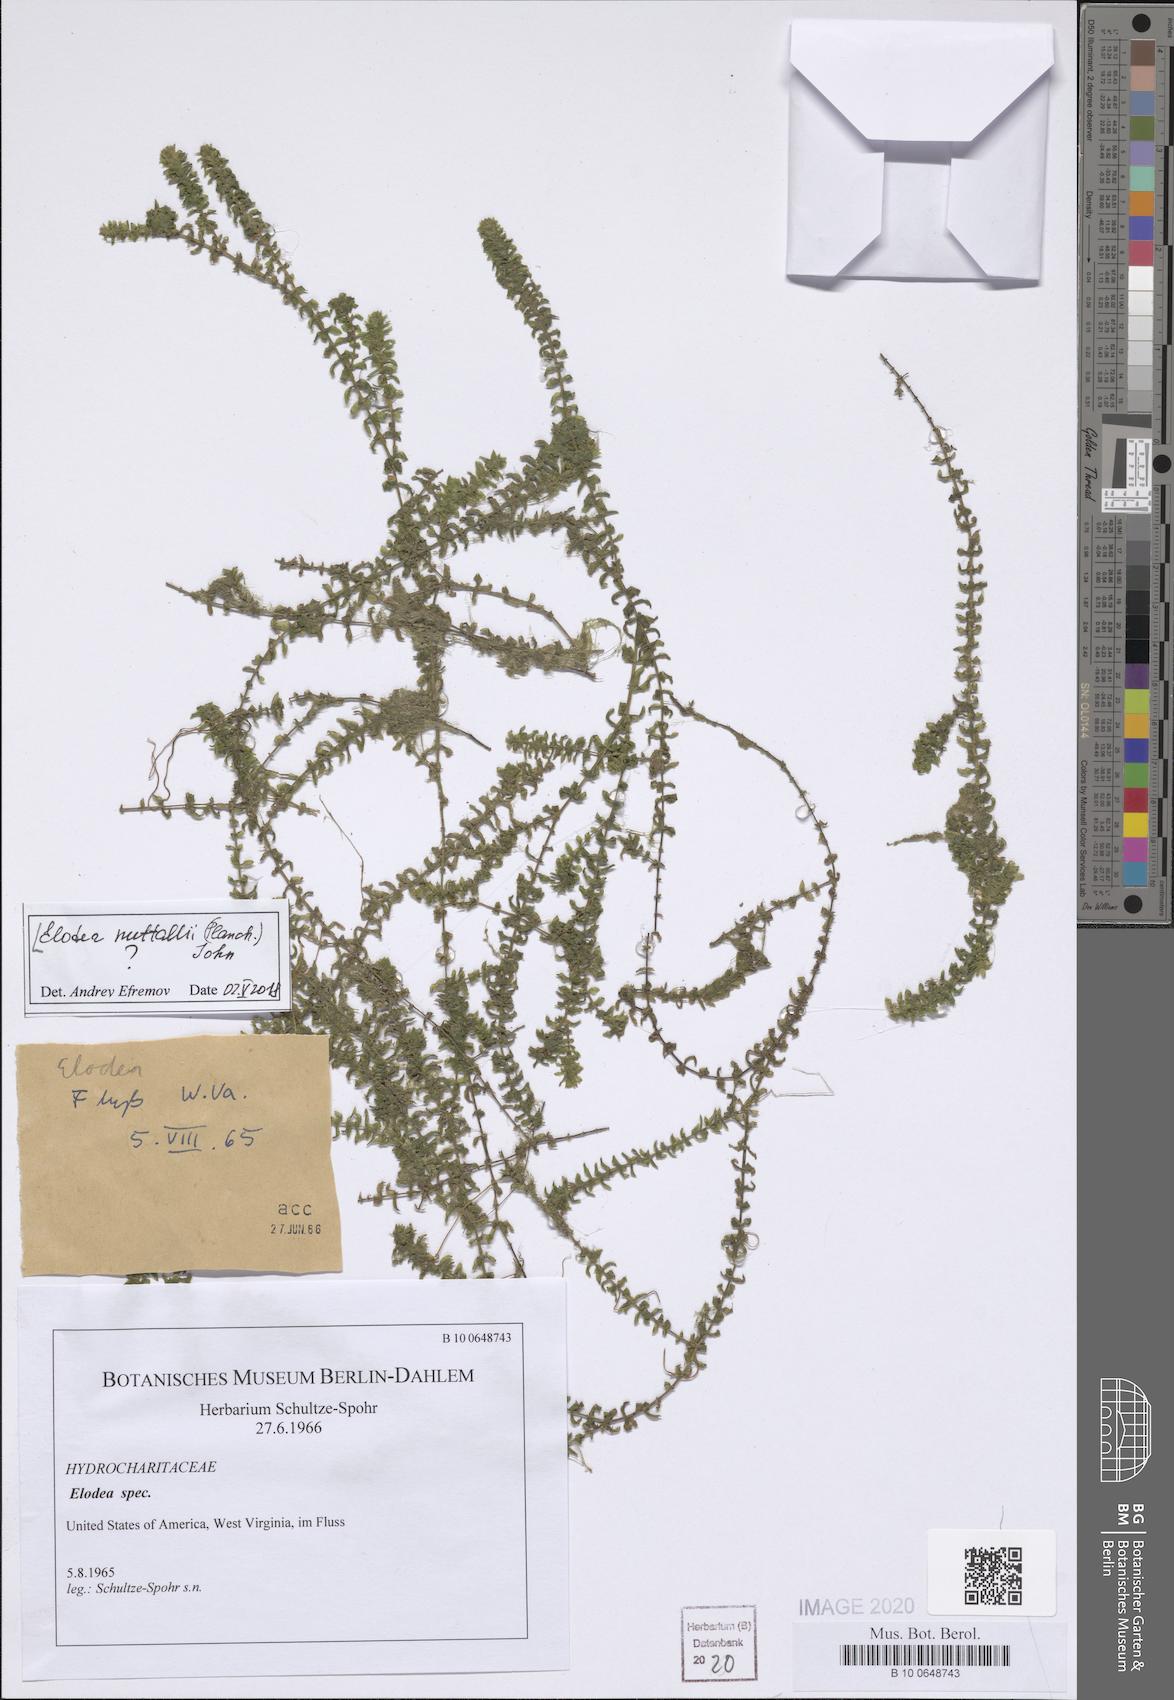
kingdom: Plantae
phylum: Tracheophyta
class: Liliopsida
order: Alismatales
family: Hydrocharitaceae
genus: Elodea
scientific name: Elodea nuttallii
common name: Nuttall's waterweed
